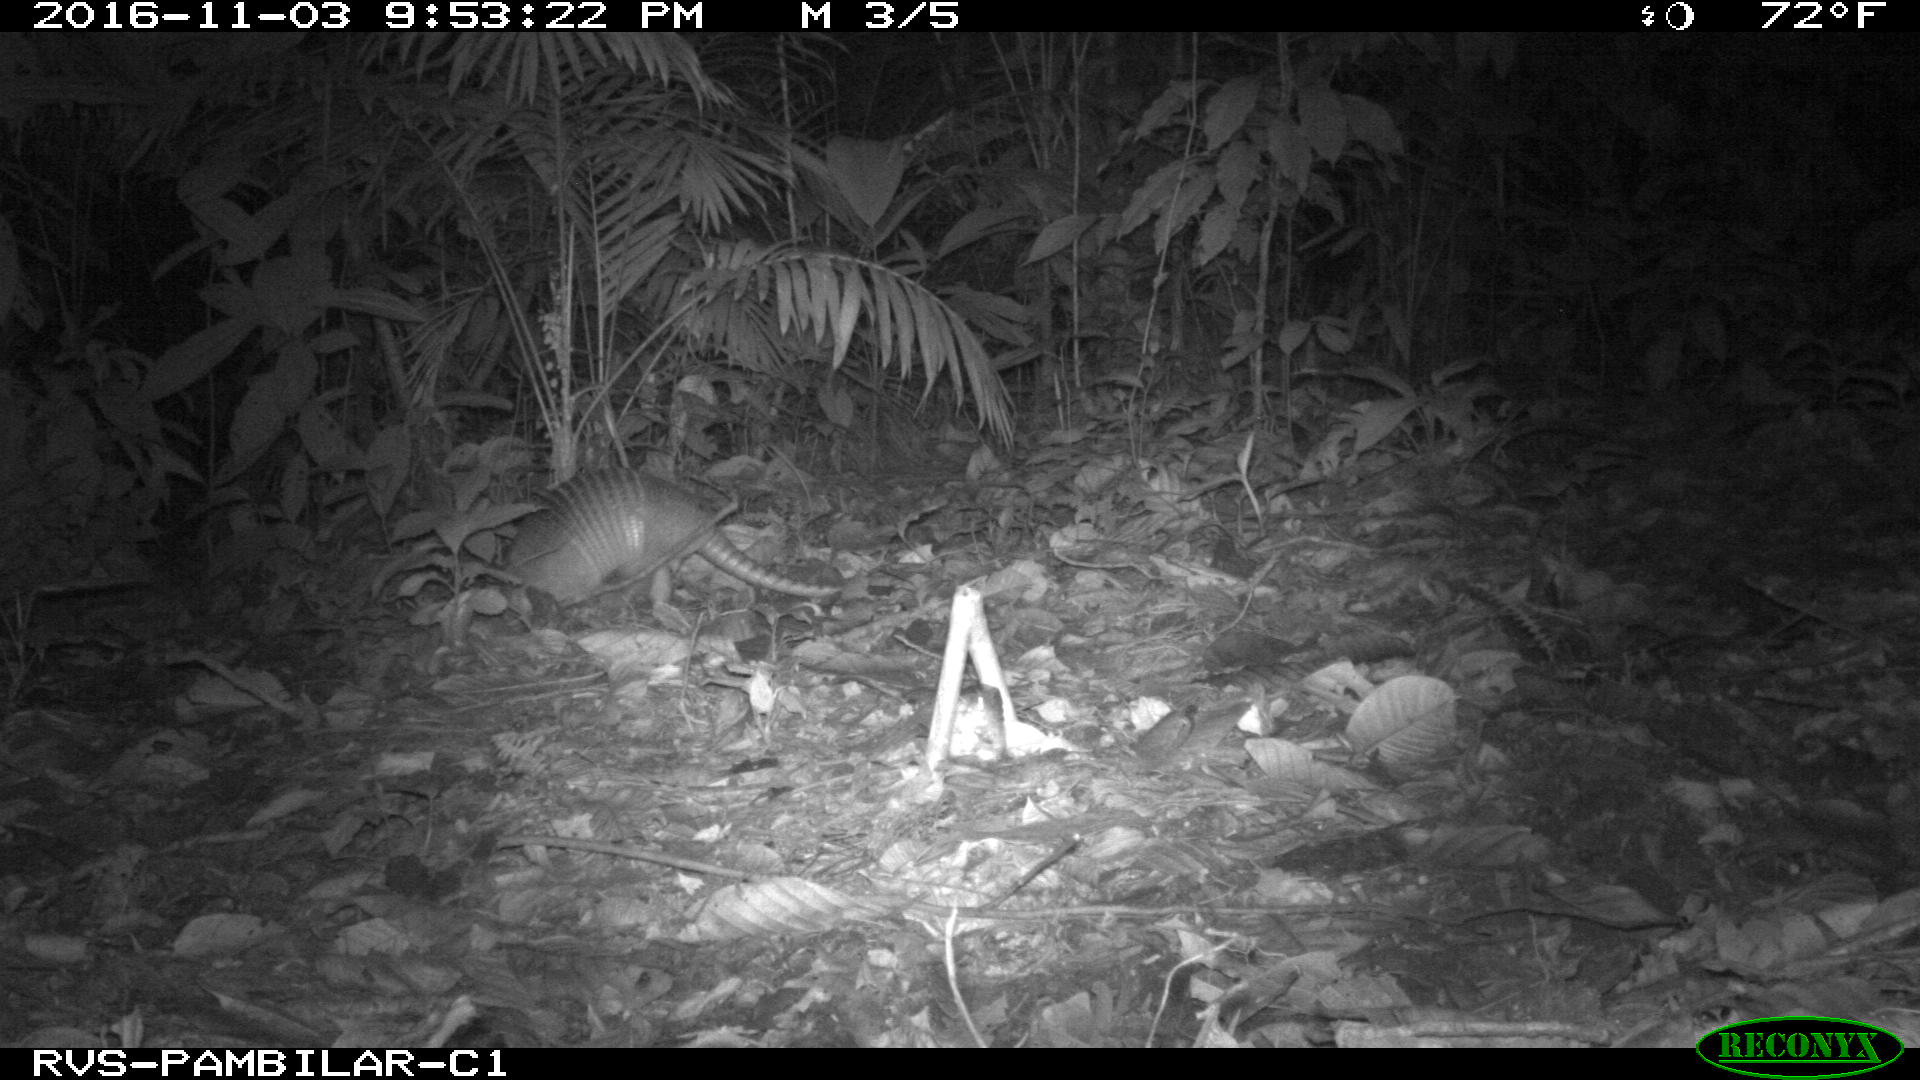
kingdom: Animalia
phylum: Chordata
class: Mammalia
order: Cingulata
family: Dasypodidae
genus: Dasypus
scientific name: Dasypus novemcinctus
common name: Nine-banded armadillo
